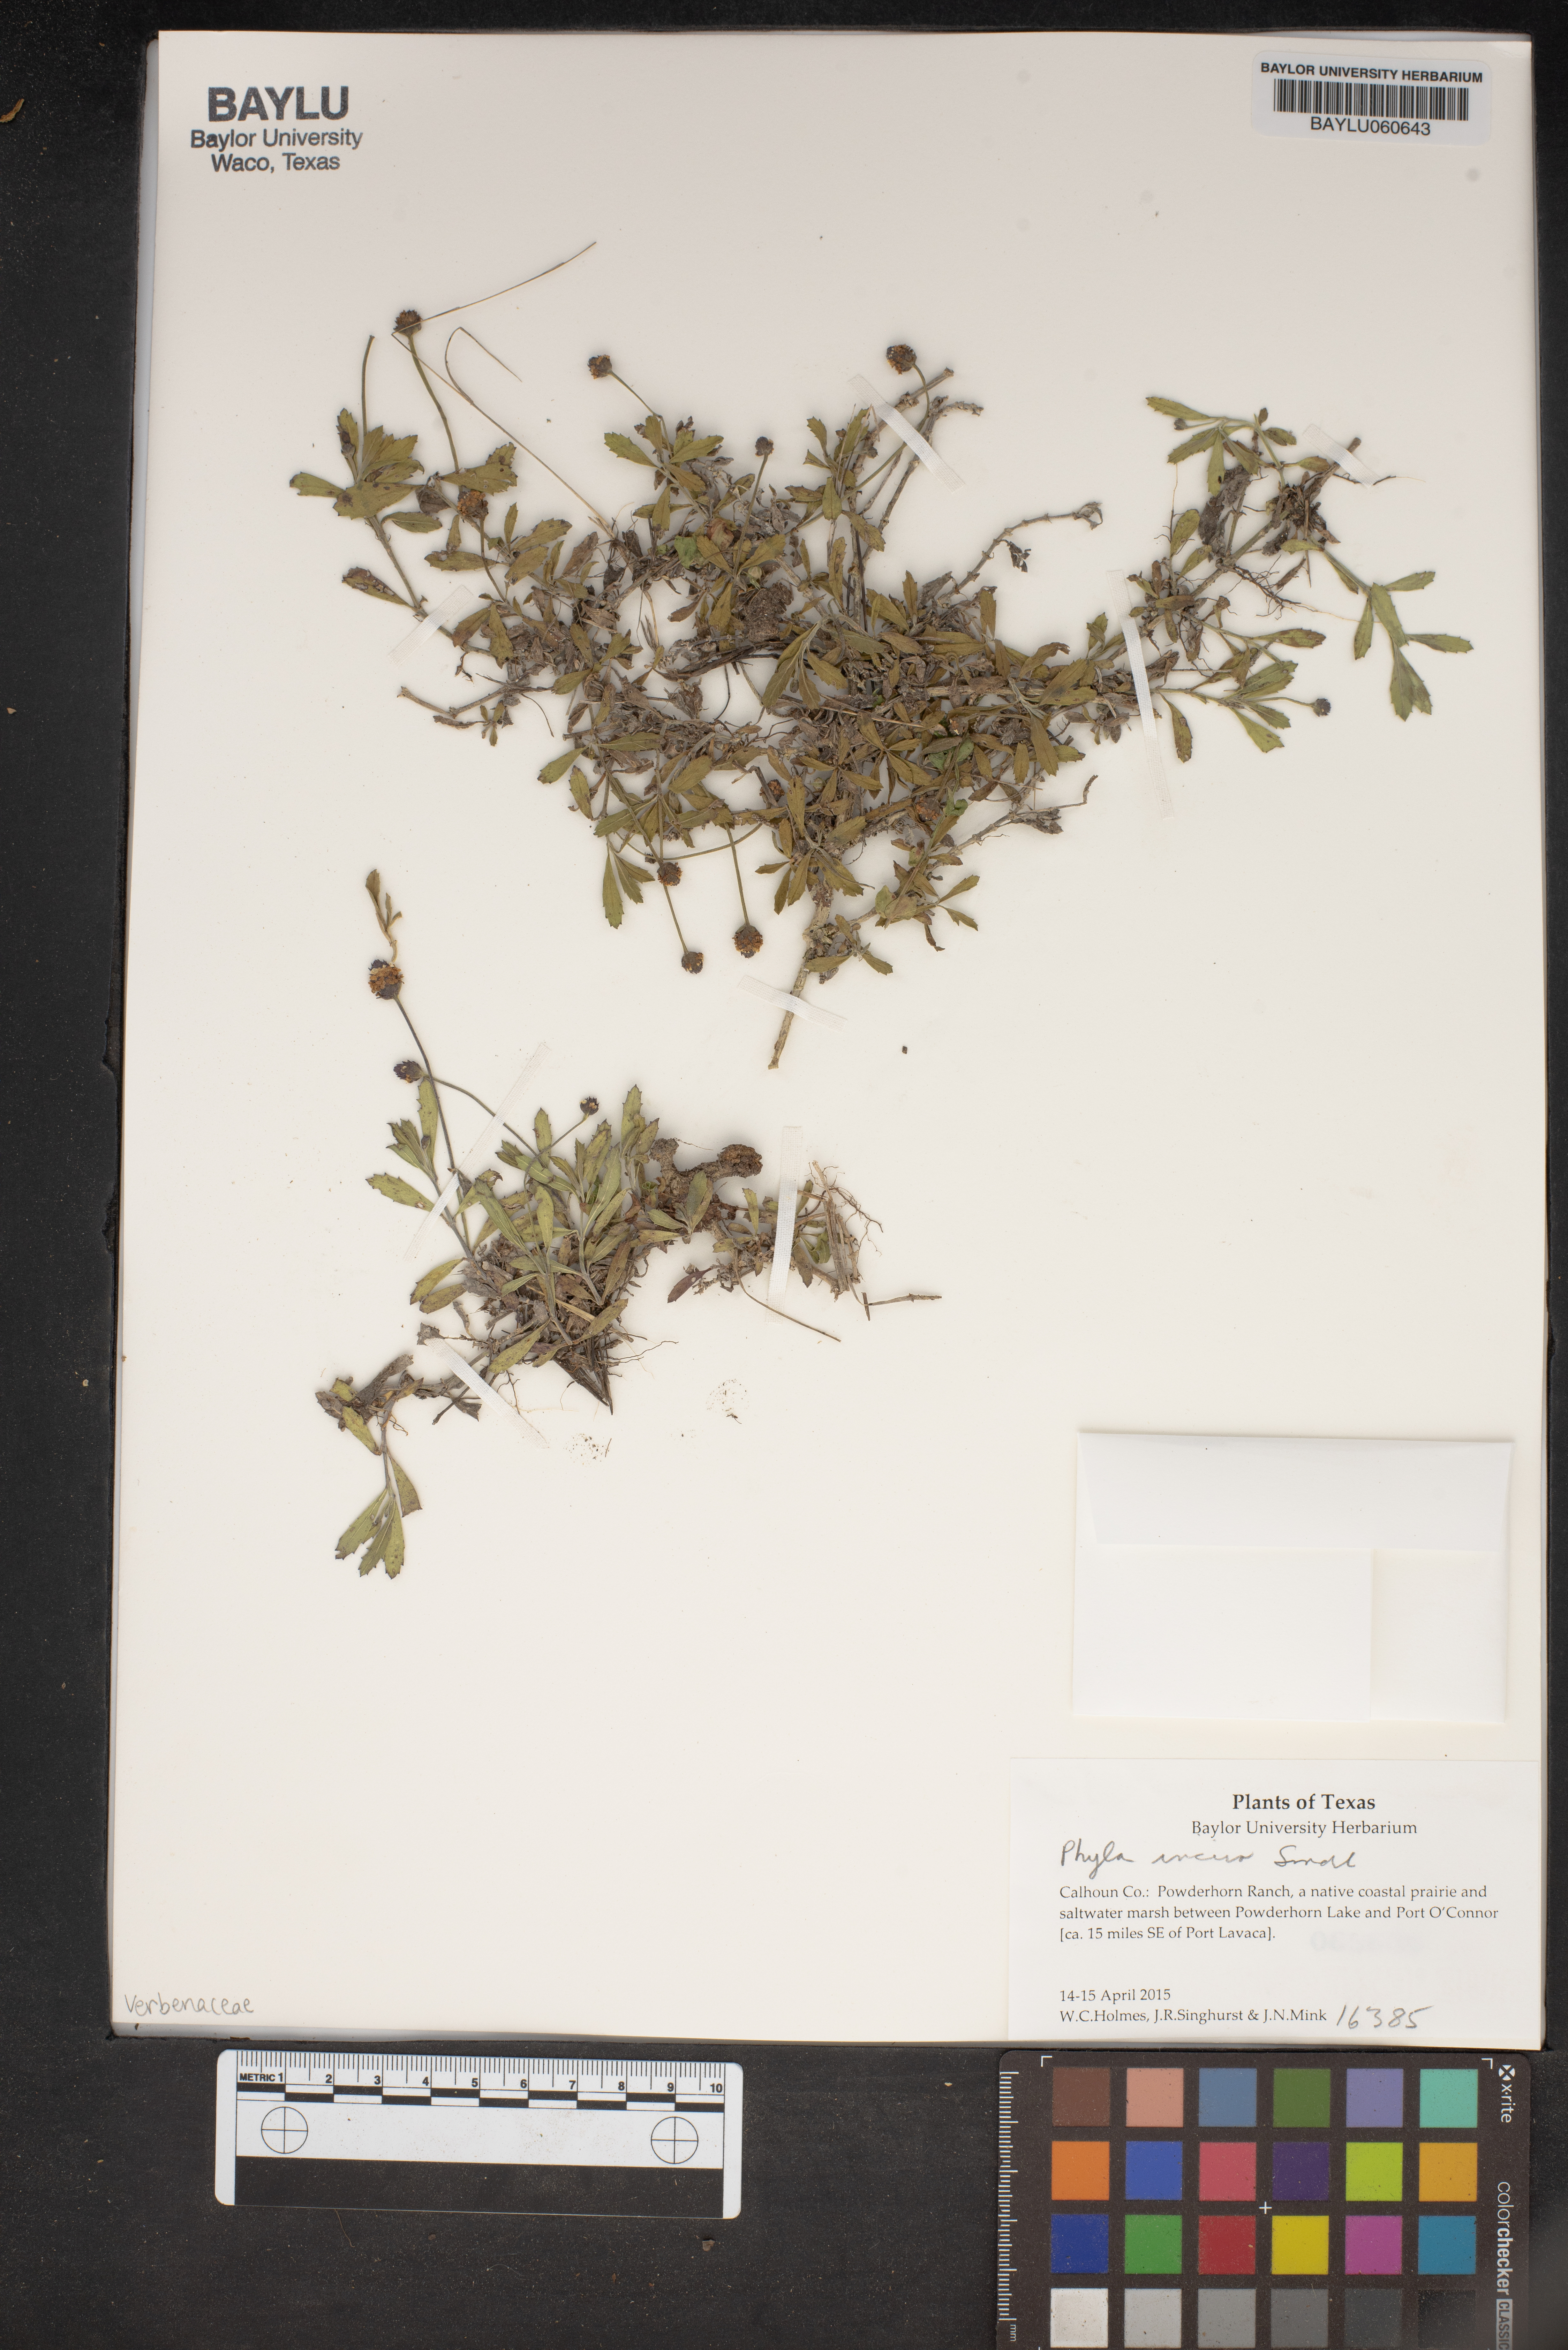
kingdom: Plantae
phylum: Tracheophyta
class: Magnoliopsida
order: Lamiales
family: Verbenaceae
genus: Phyla
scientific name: Phyla nodiflora
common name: Frogfruit
